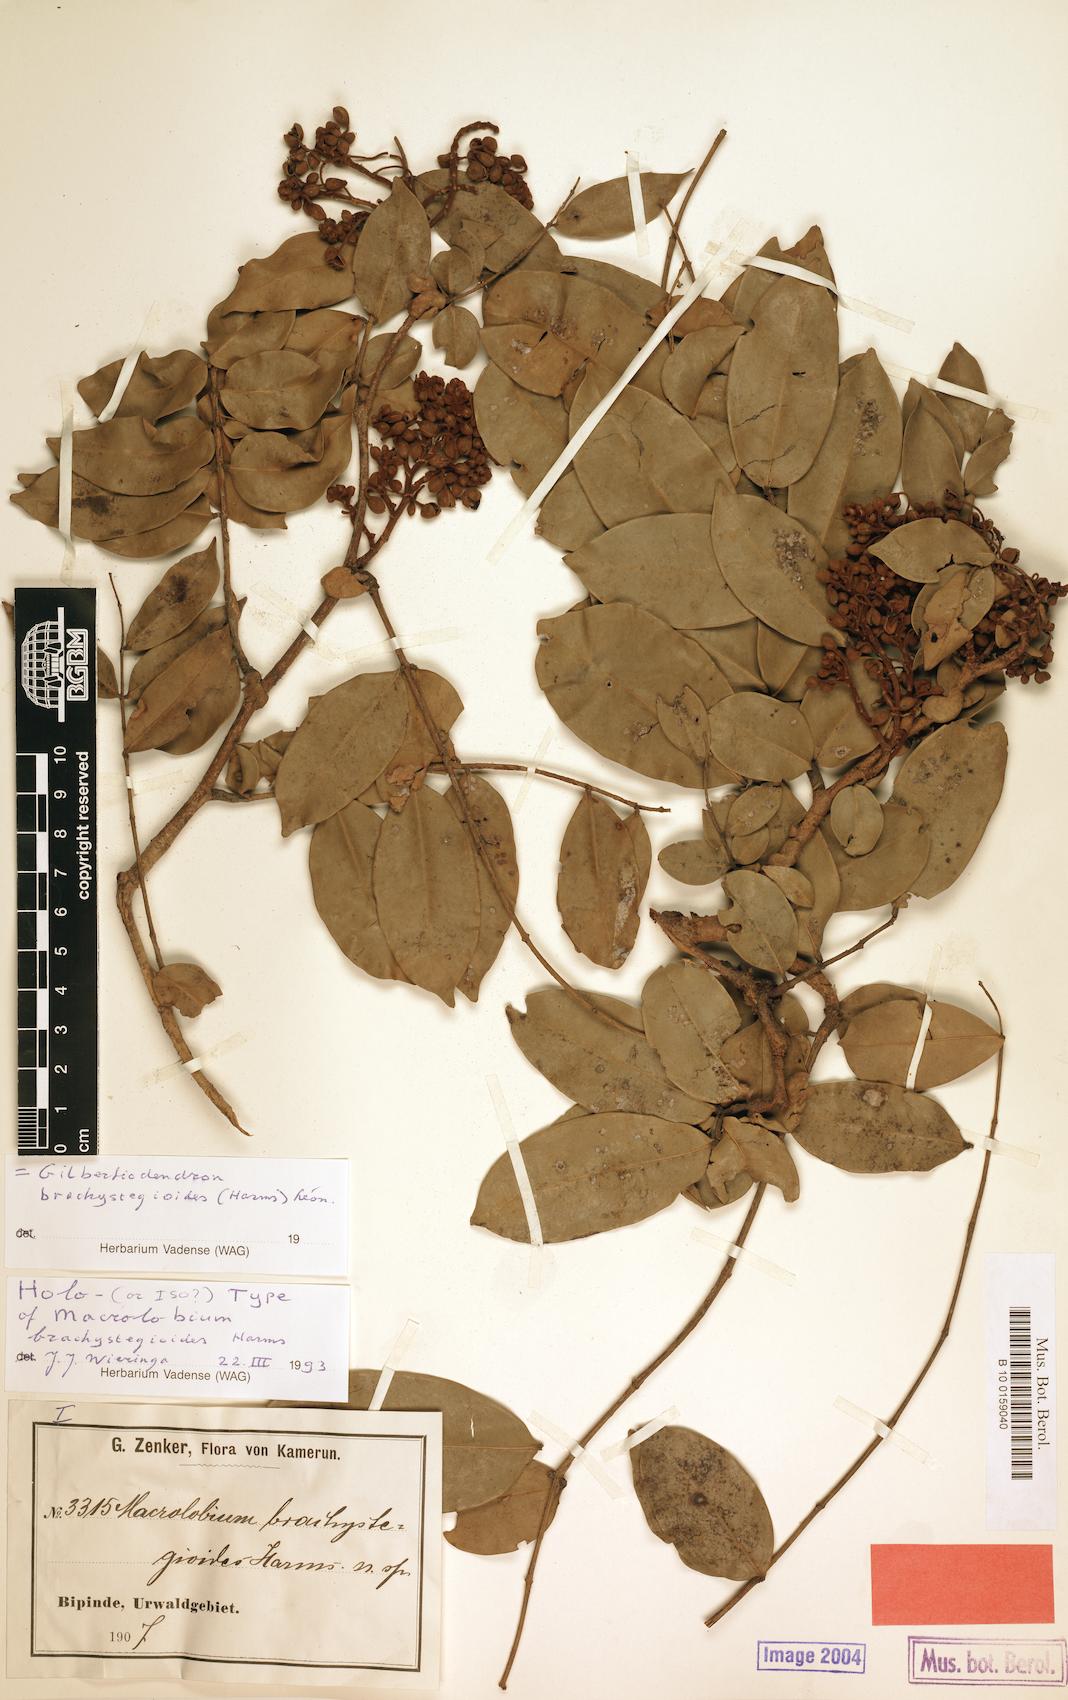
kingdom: Plantae
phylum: Tracheophyta
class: Magnoliopsida
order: Fabales
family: Fabaceae
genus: Gilbertiodendron
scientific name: Gilbertiodendron brachystegioides
